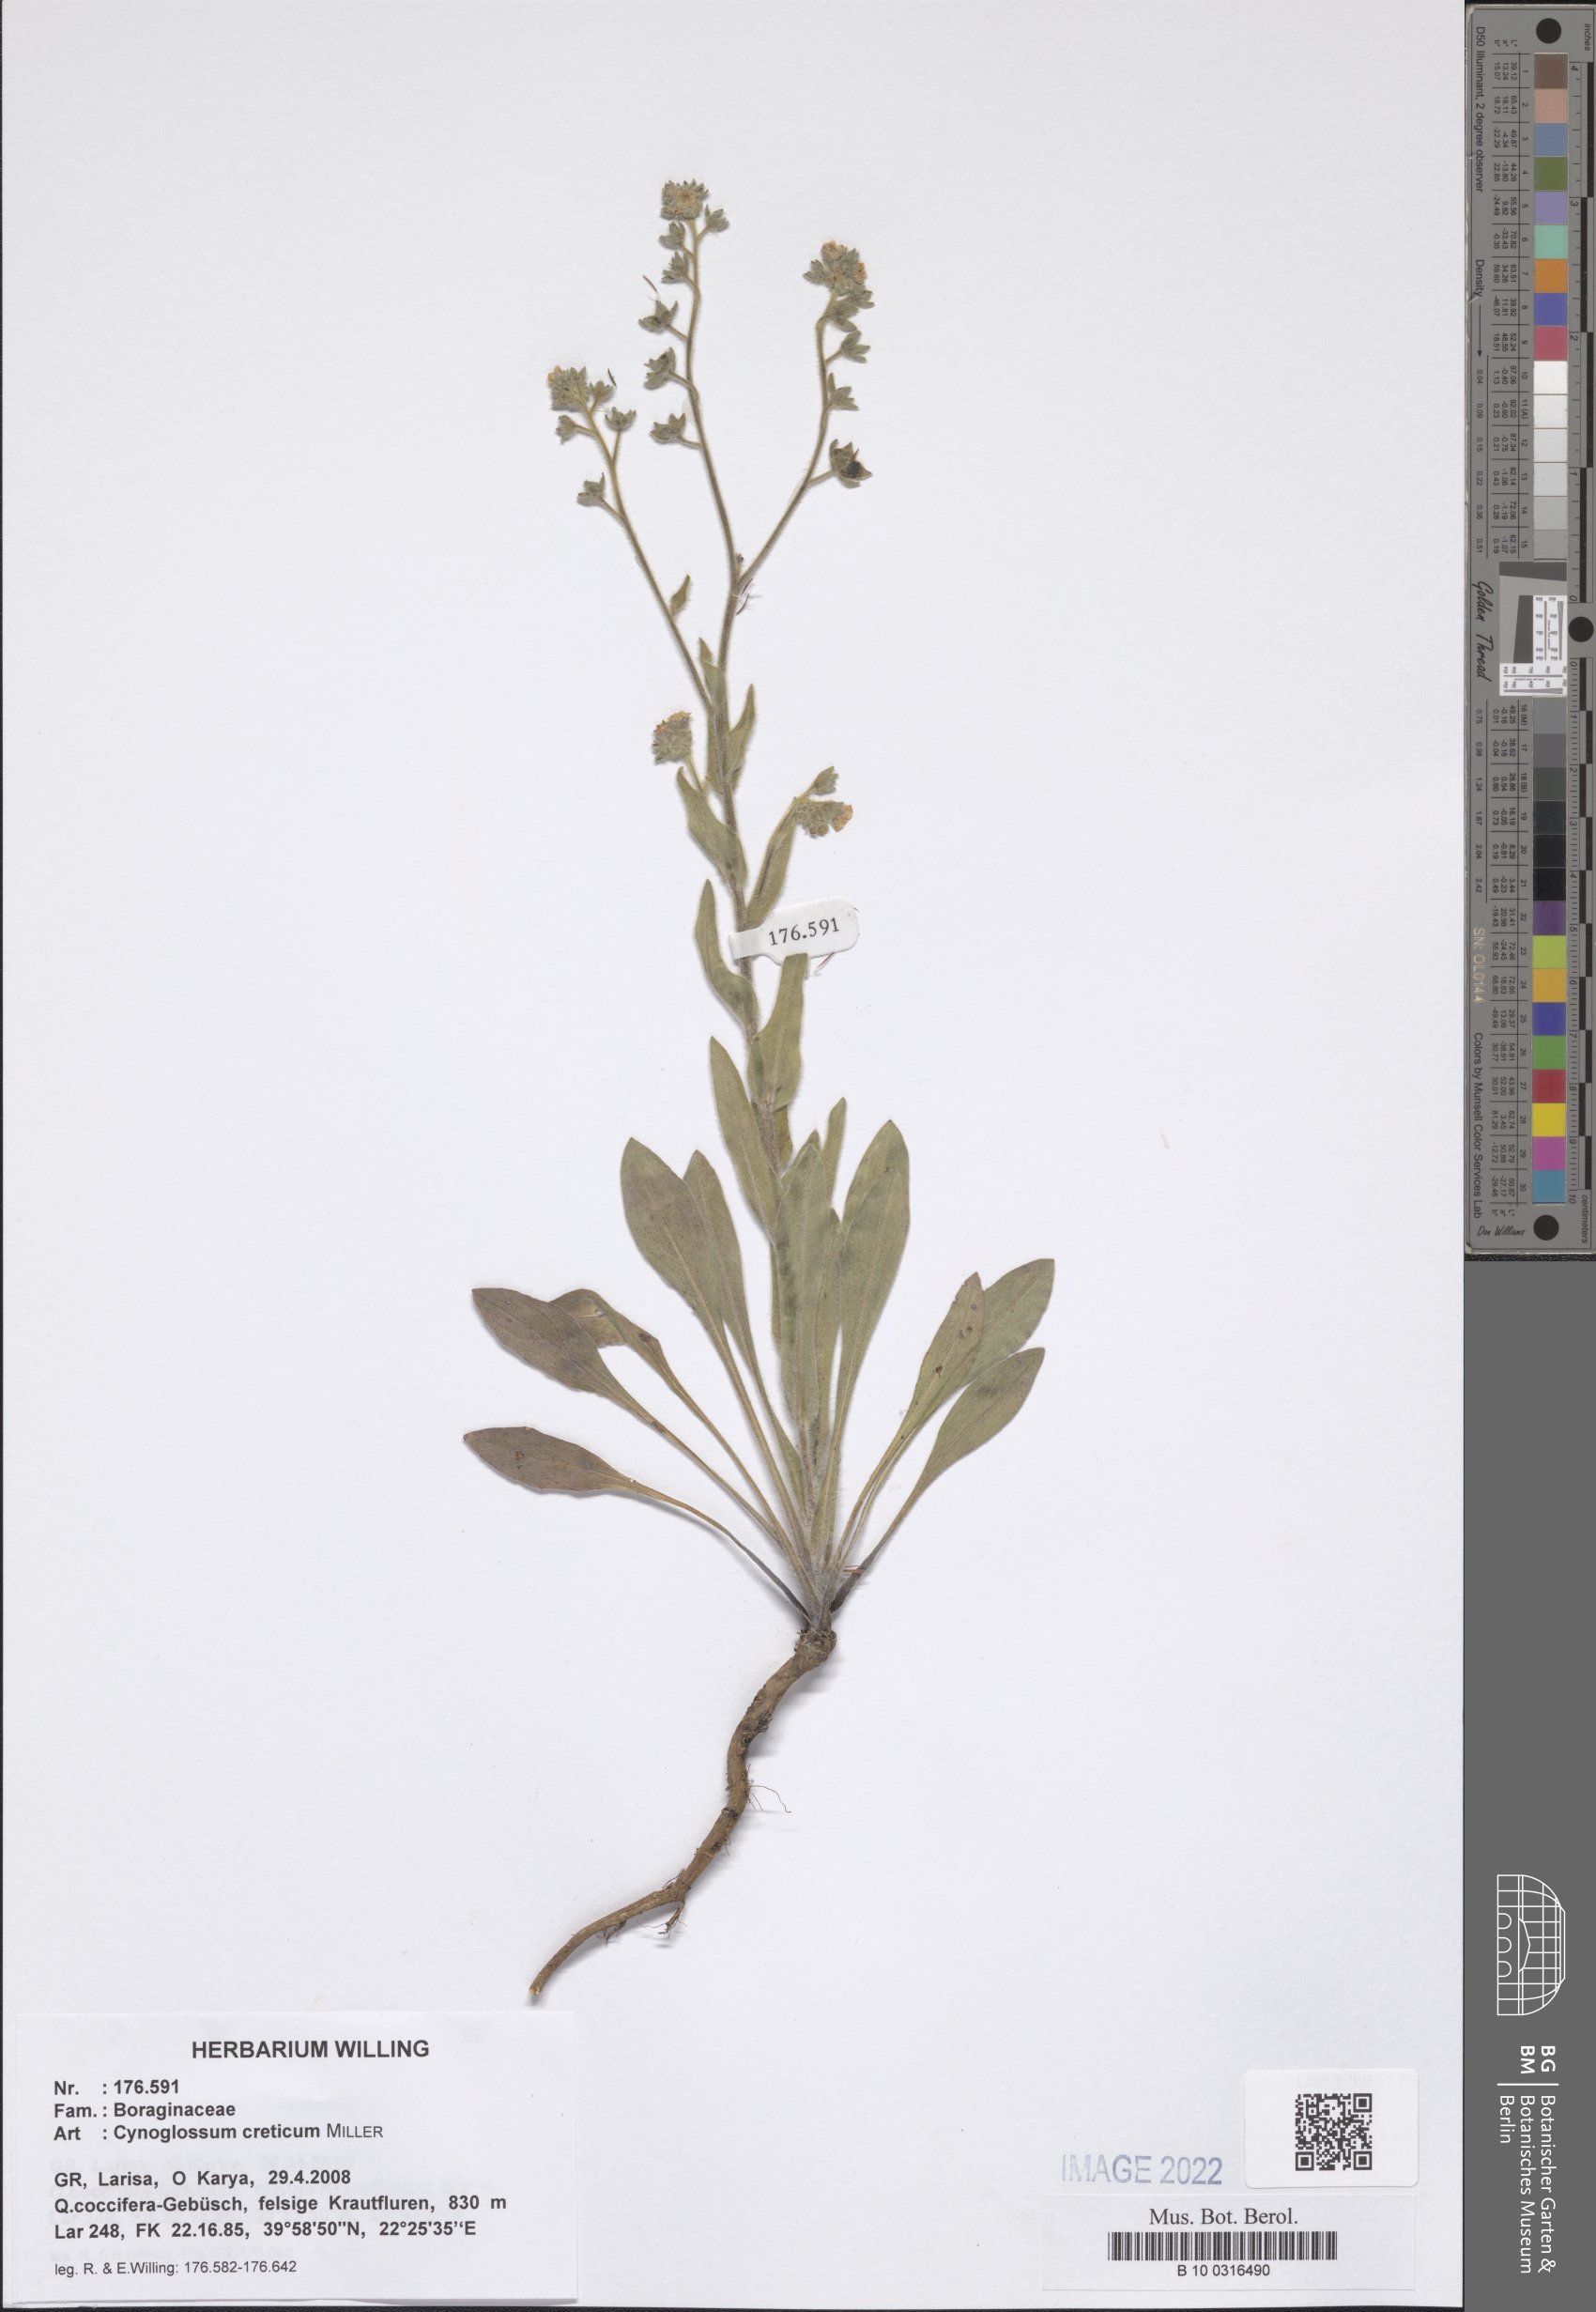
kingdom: Plantae
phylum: Tracheophyta
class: Magnoliopsida
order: Boraginales
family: Boraginaceae
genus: Cynoglossum
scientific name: Cynoglossum creticum
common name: Blue hound's tongue
